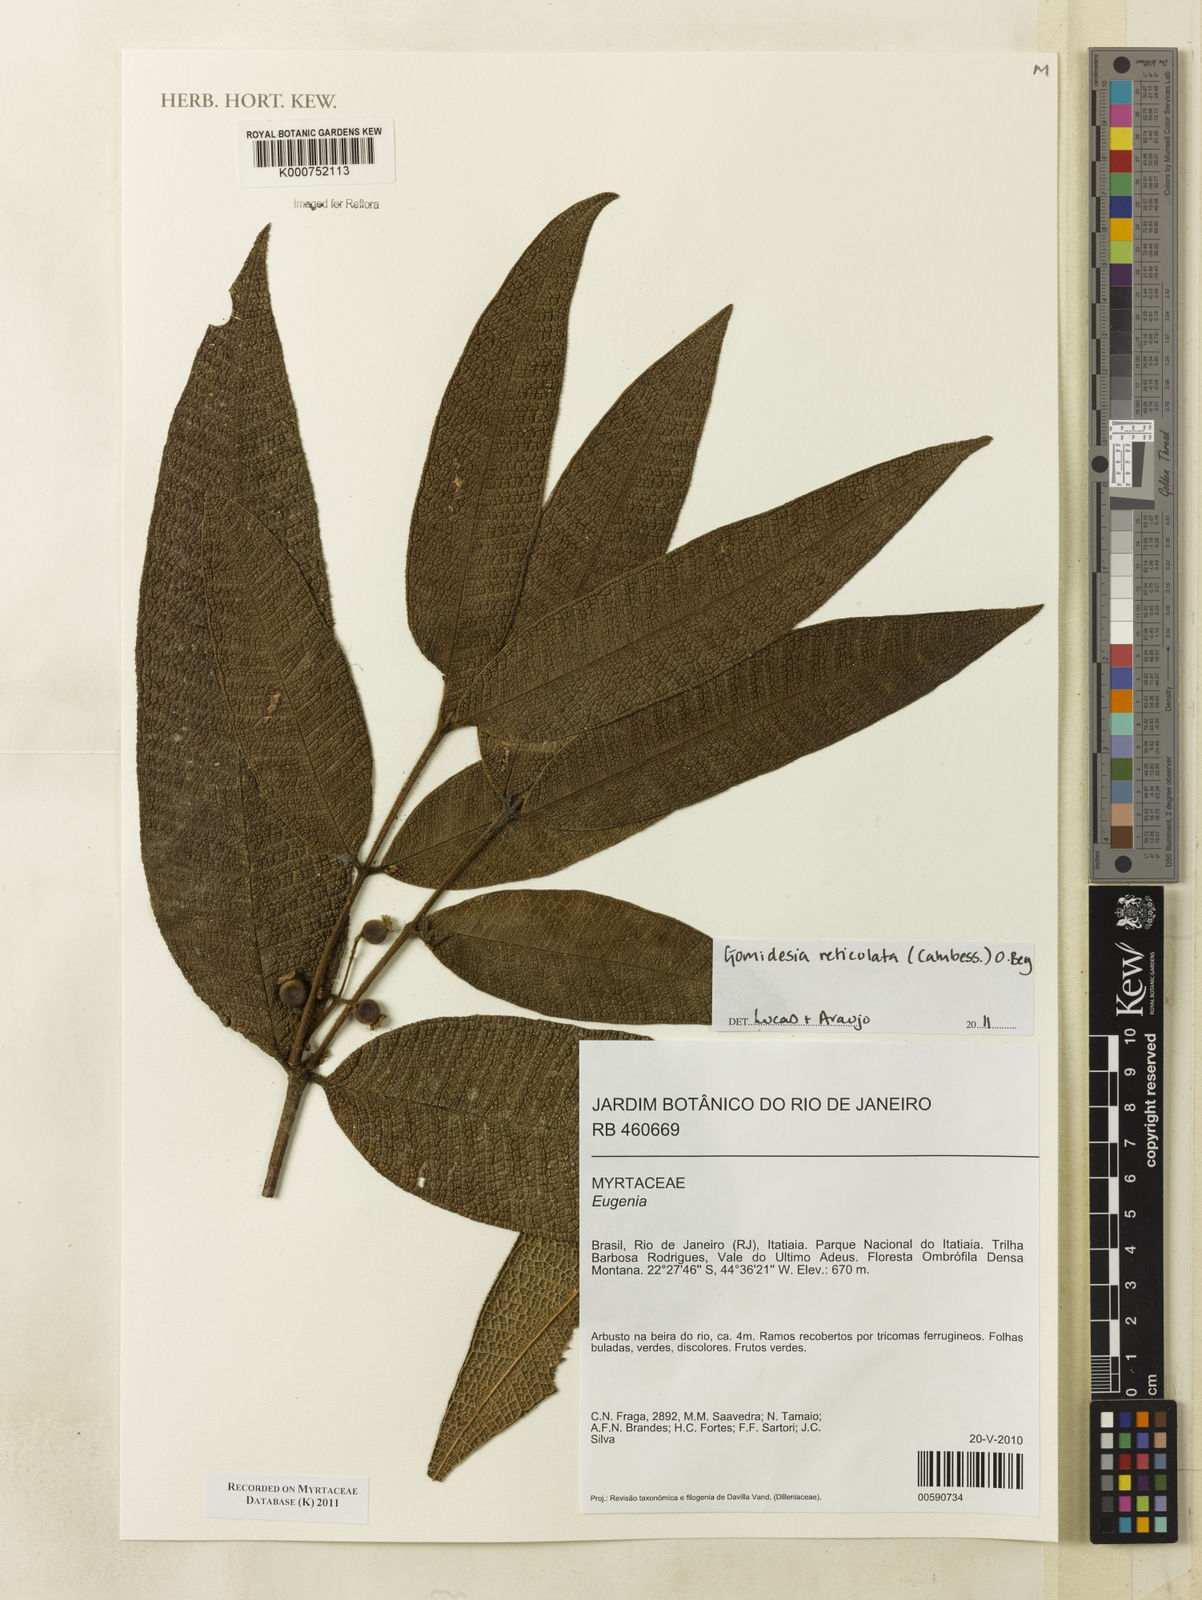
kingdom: Plantae
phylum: Tracheophyta
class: Magnoliopsida
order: Myrtales
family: Myrtaceae
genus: Myrcia
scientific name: Myrcia reticulata
